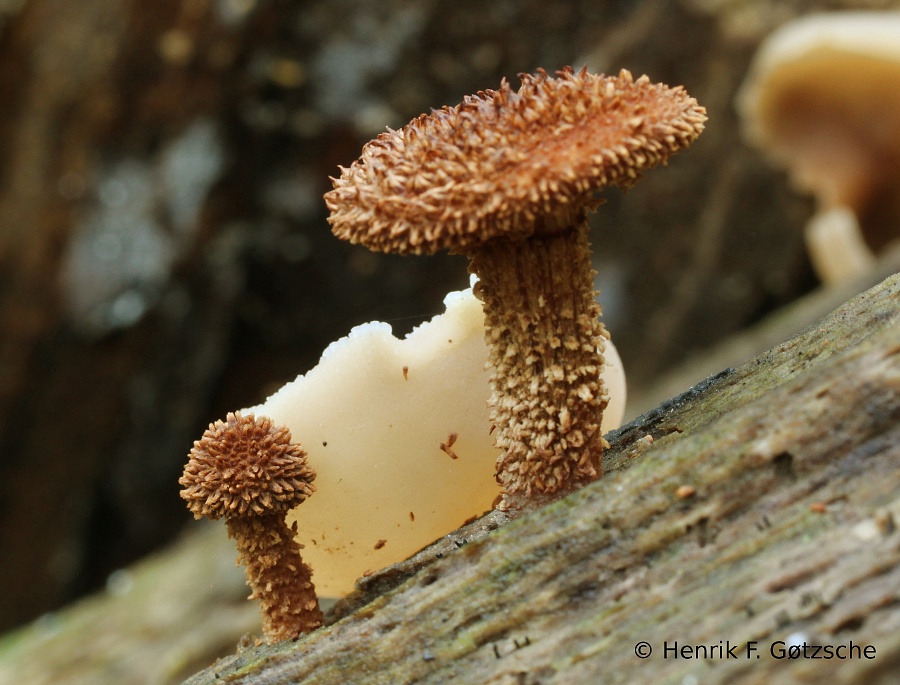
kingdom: Fungi
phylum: Basidiomycota
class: Agaricomycetes
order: Agaricales
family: Tubariaceae
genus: Flammulaster
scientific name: Flammulaster muricatus
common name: pigget grynskælhat
